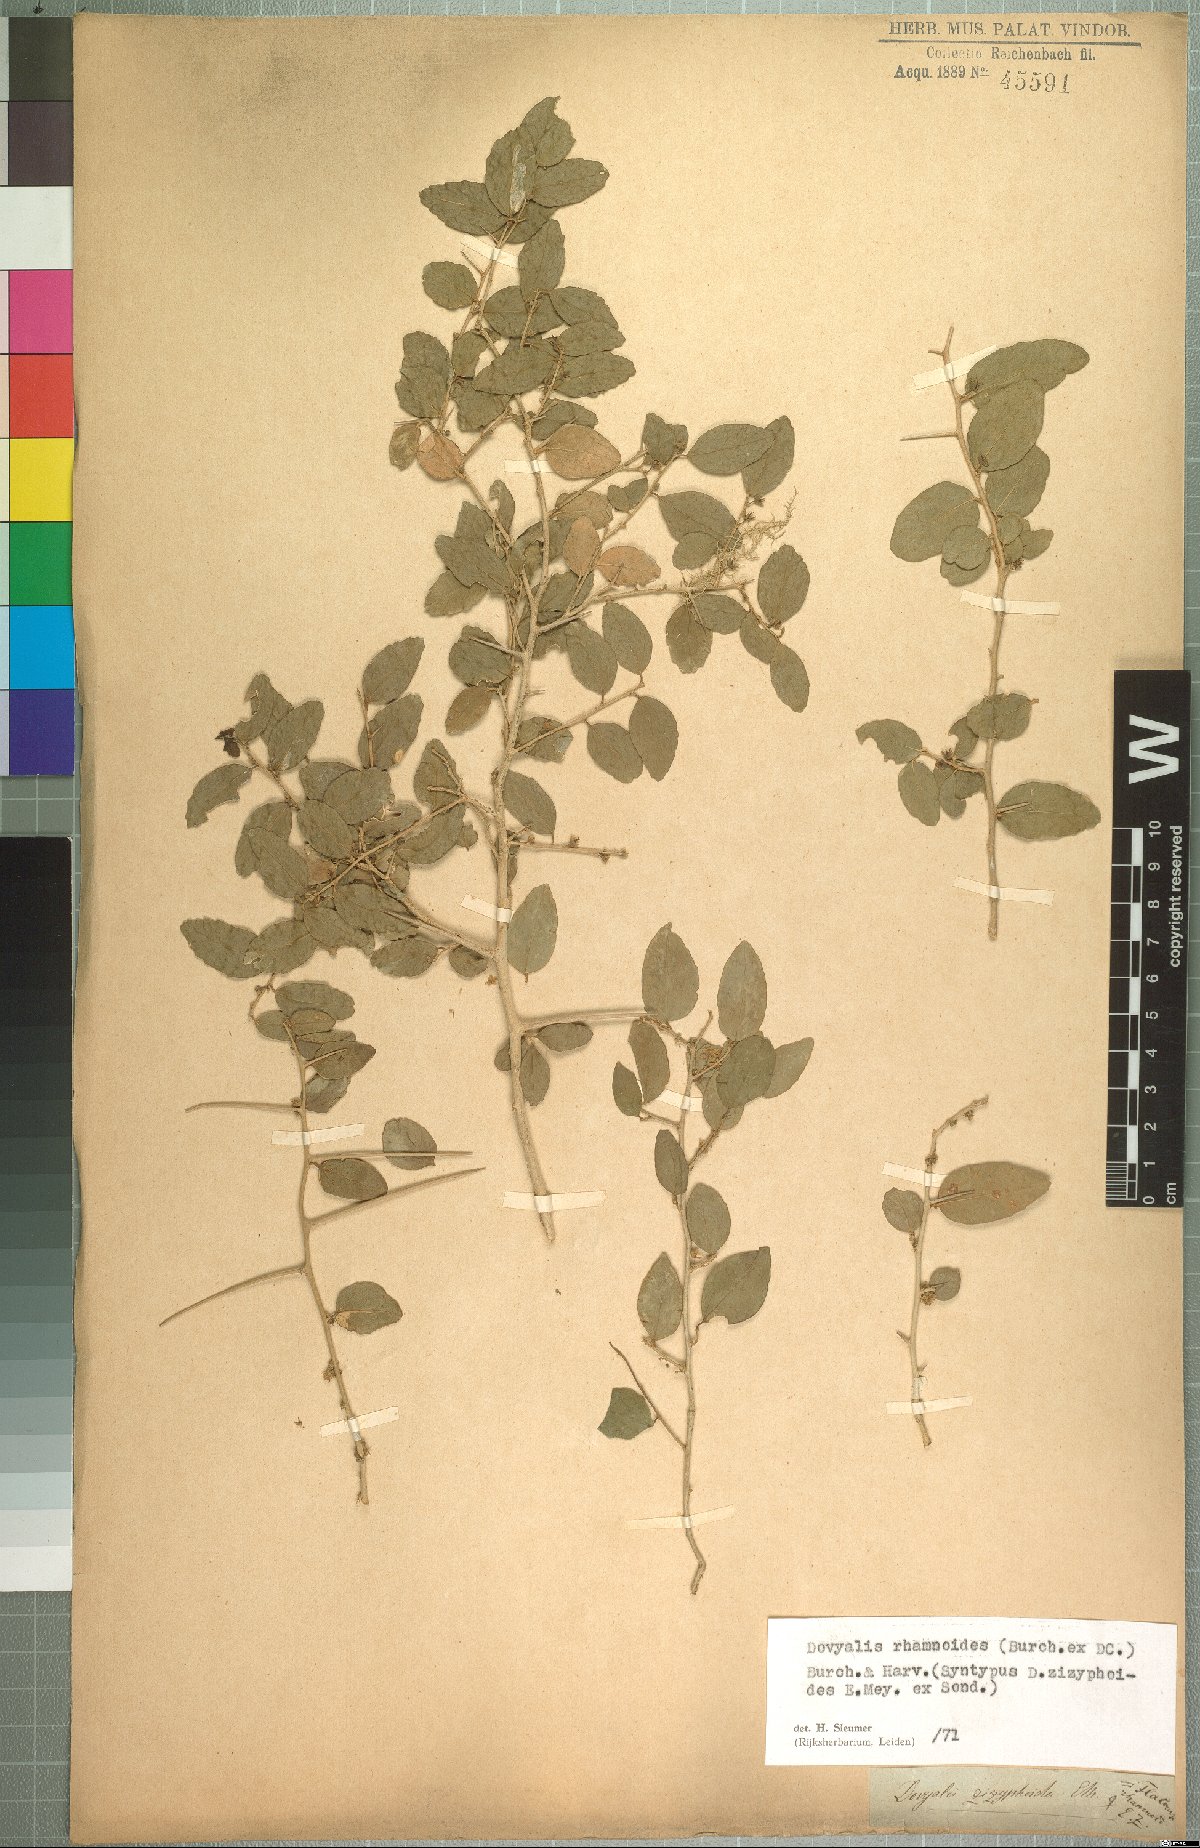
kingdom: Plantae
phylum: Tracheophyta
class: Magnoliopsida
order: Malpighiales
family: Salicaceae
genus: Dovyalis
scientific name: Dovyalis rhamnoides
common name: Sourberry
